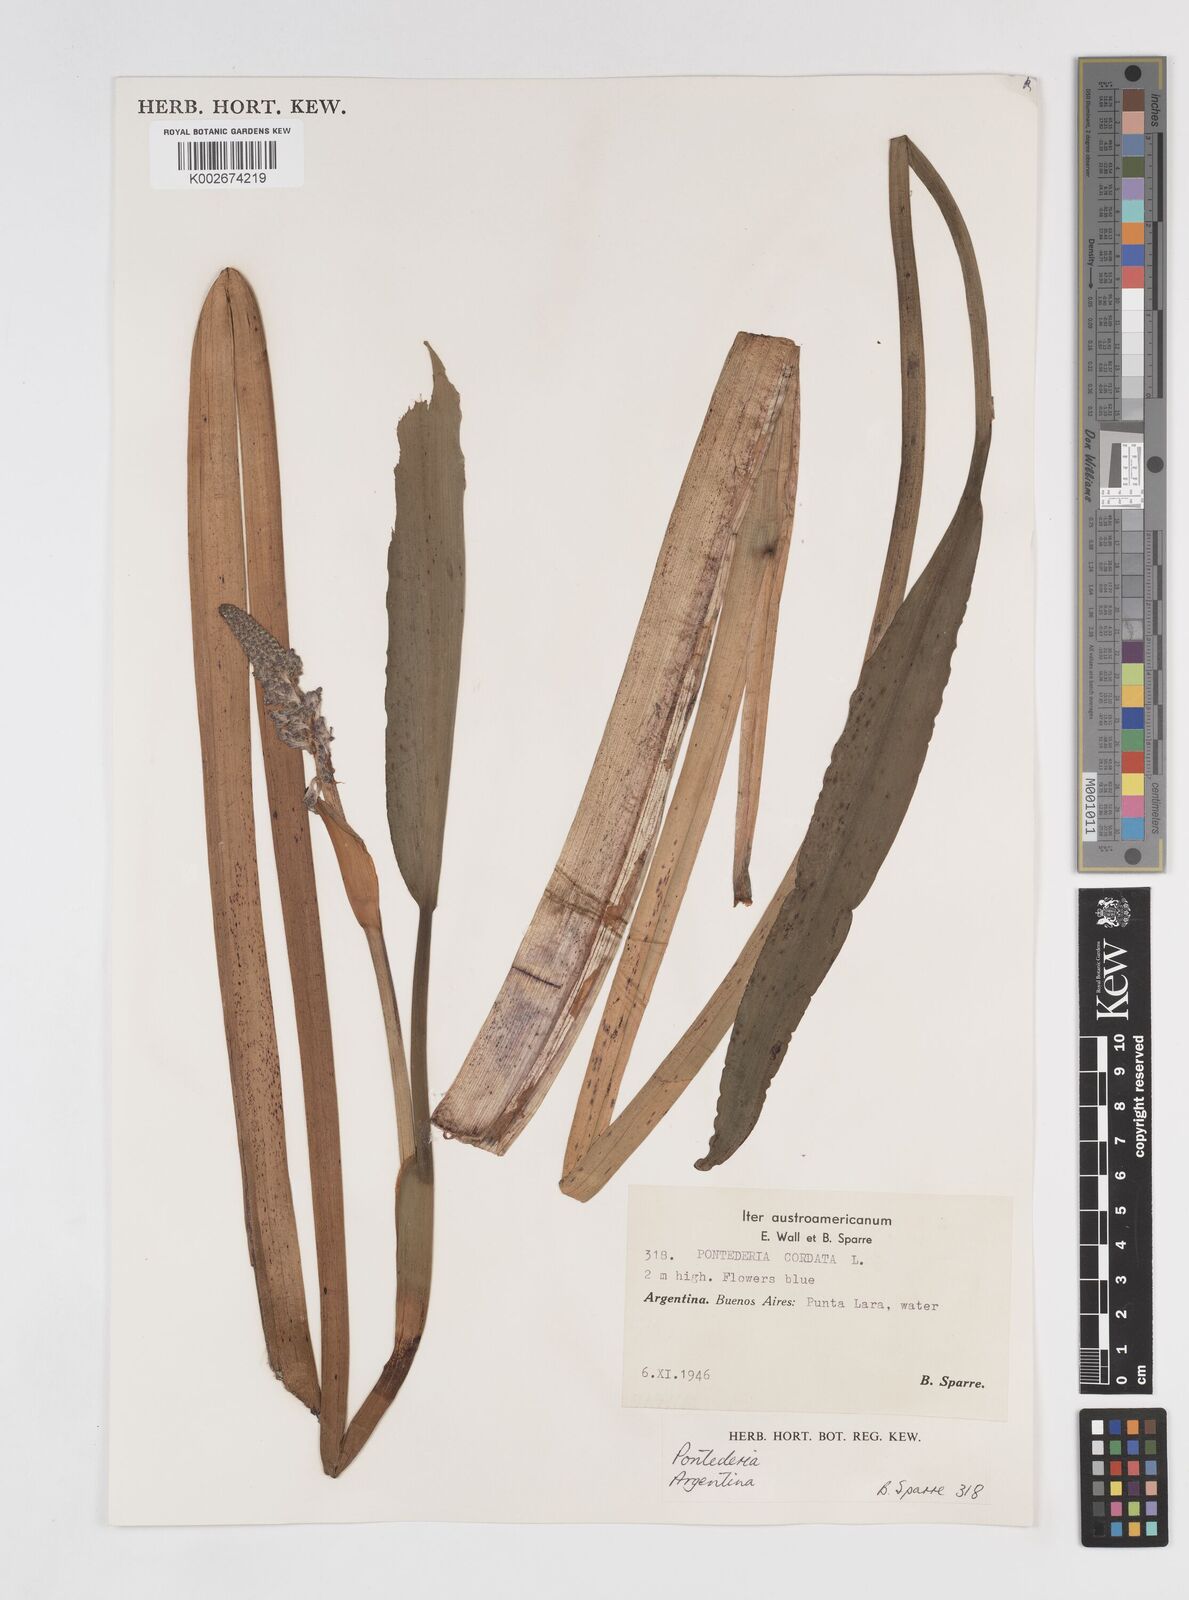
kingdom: Plantae
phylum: Tracheophyta
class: Liliopsida
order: Commelinales
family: Pontederiaceae
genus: Pontederia
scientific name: Pontederia
